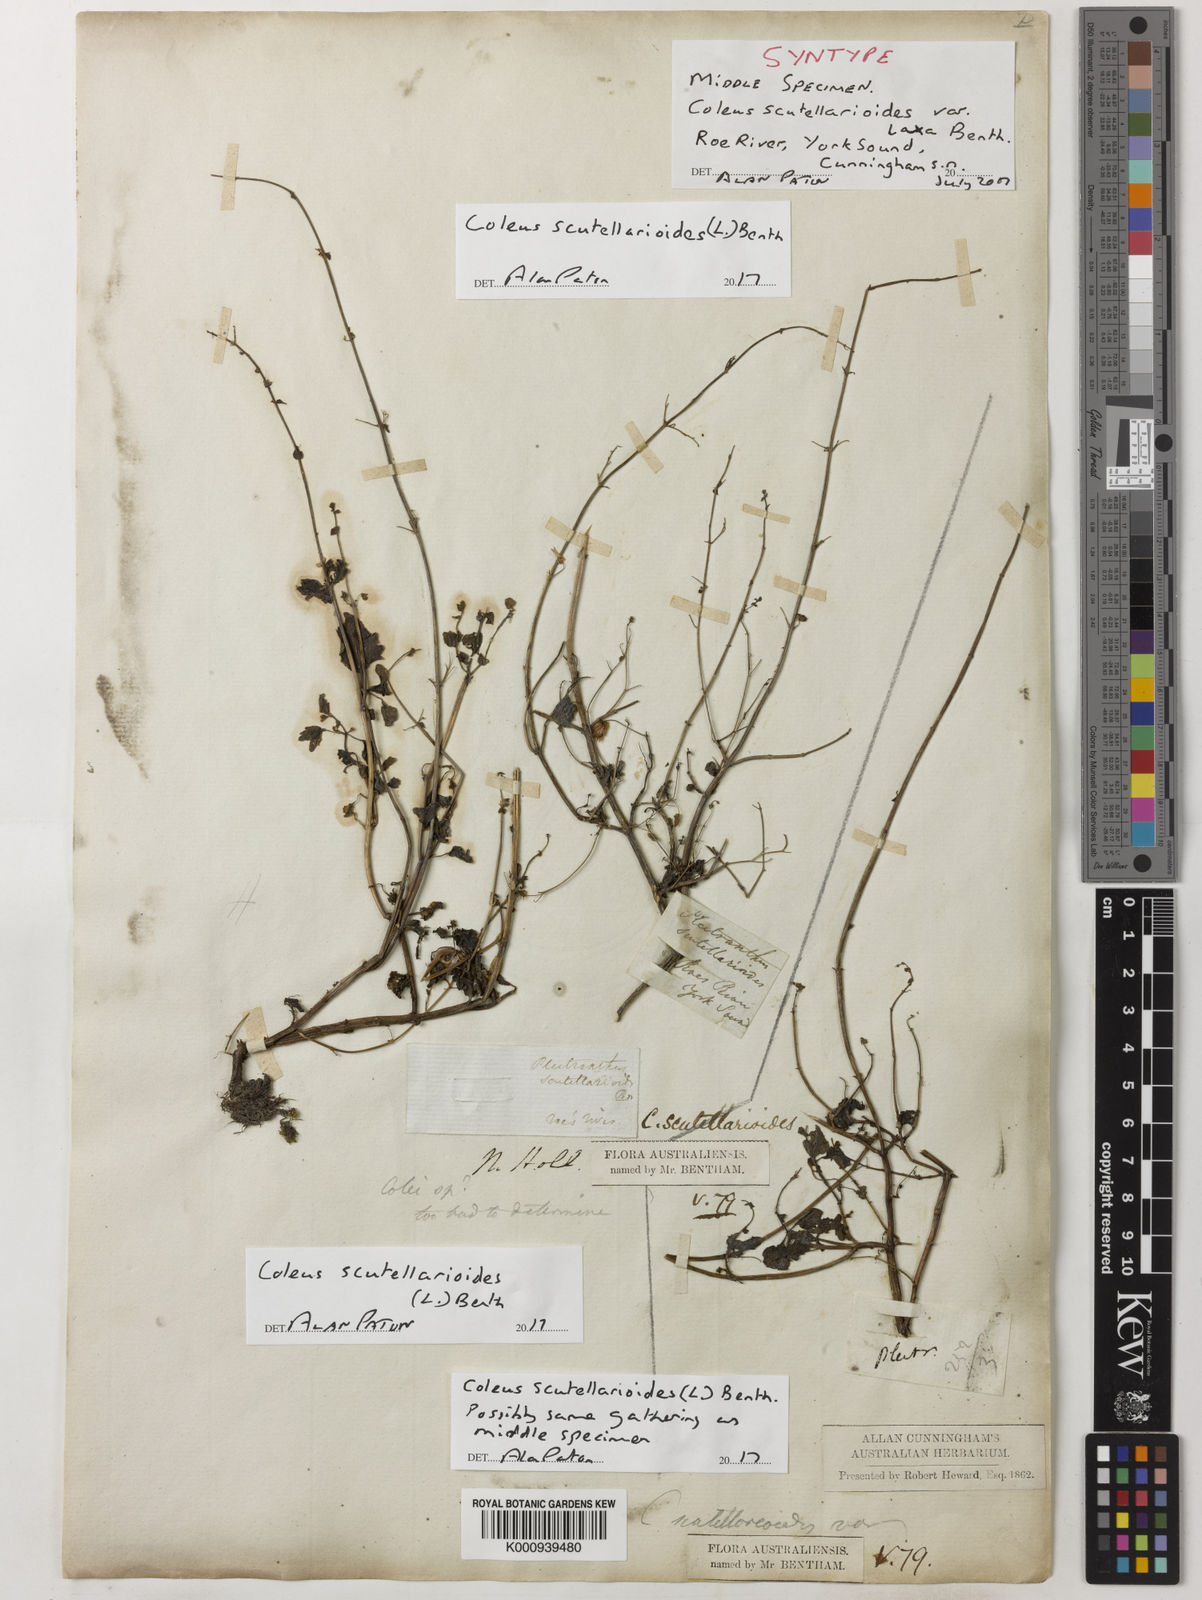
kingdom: Plantae
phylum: Tracheophyta
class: Magnoliopsida
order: Lamiales
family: Lamiaceae
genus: Coleus
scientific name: Coleus scutellarioides
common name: Coleus
